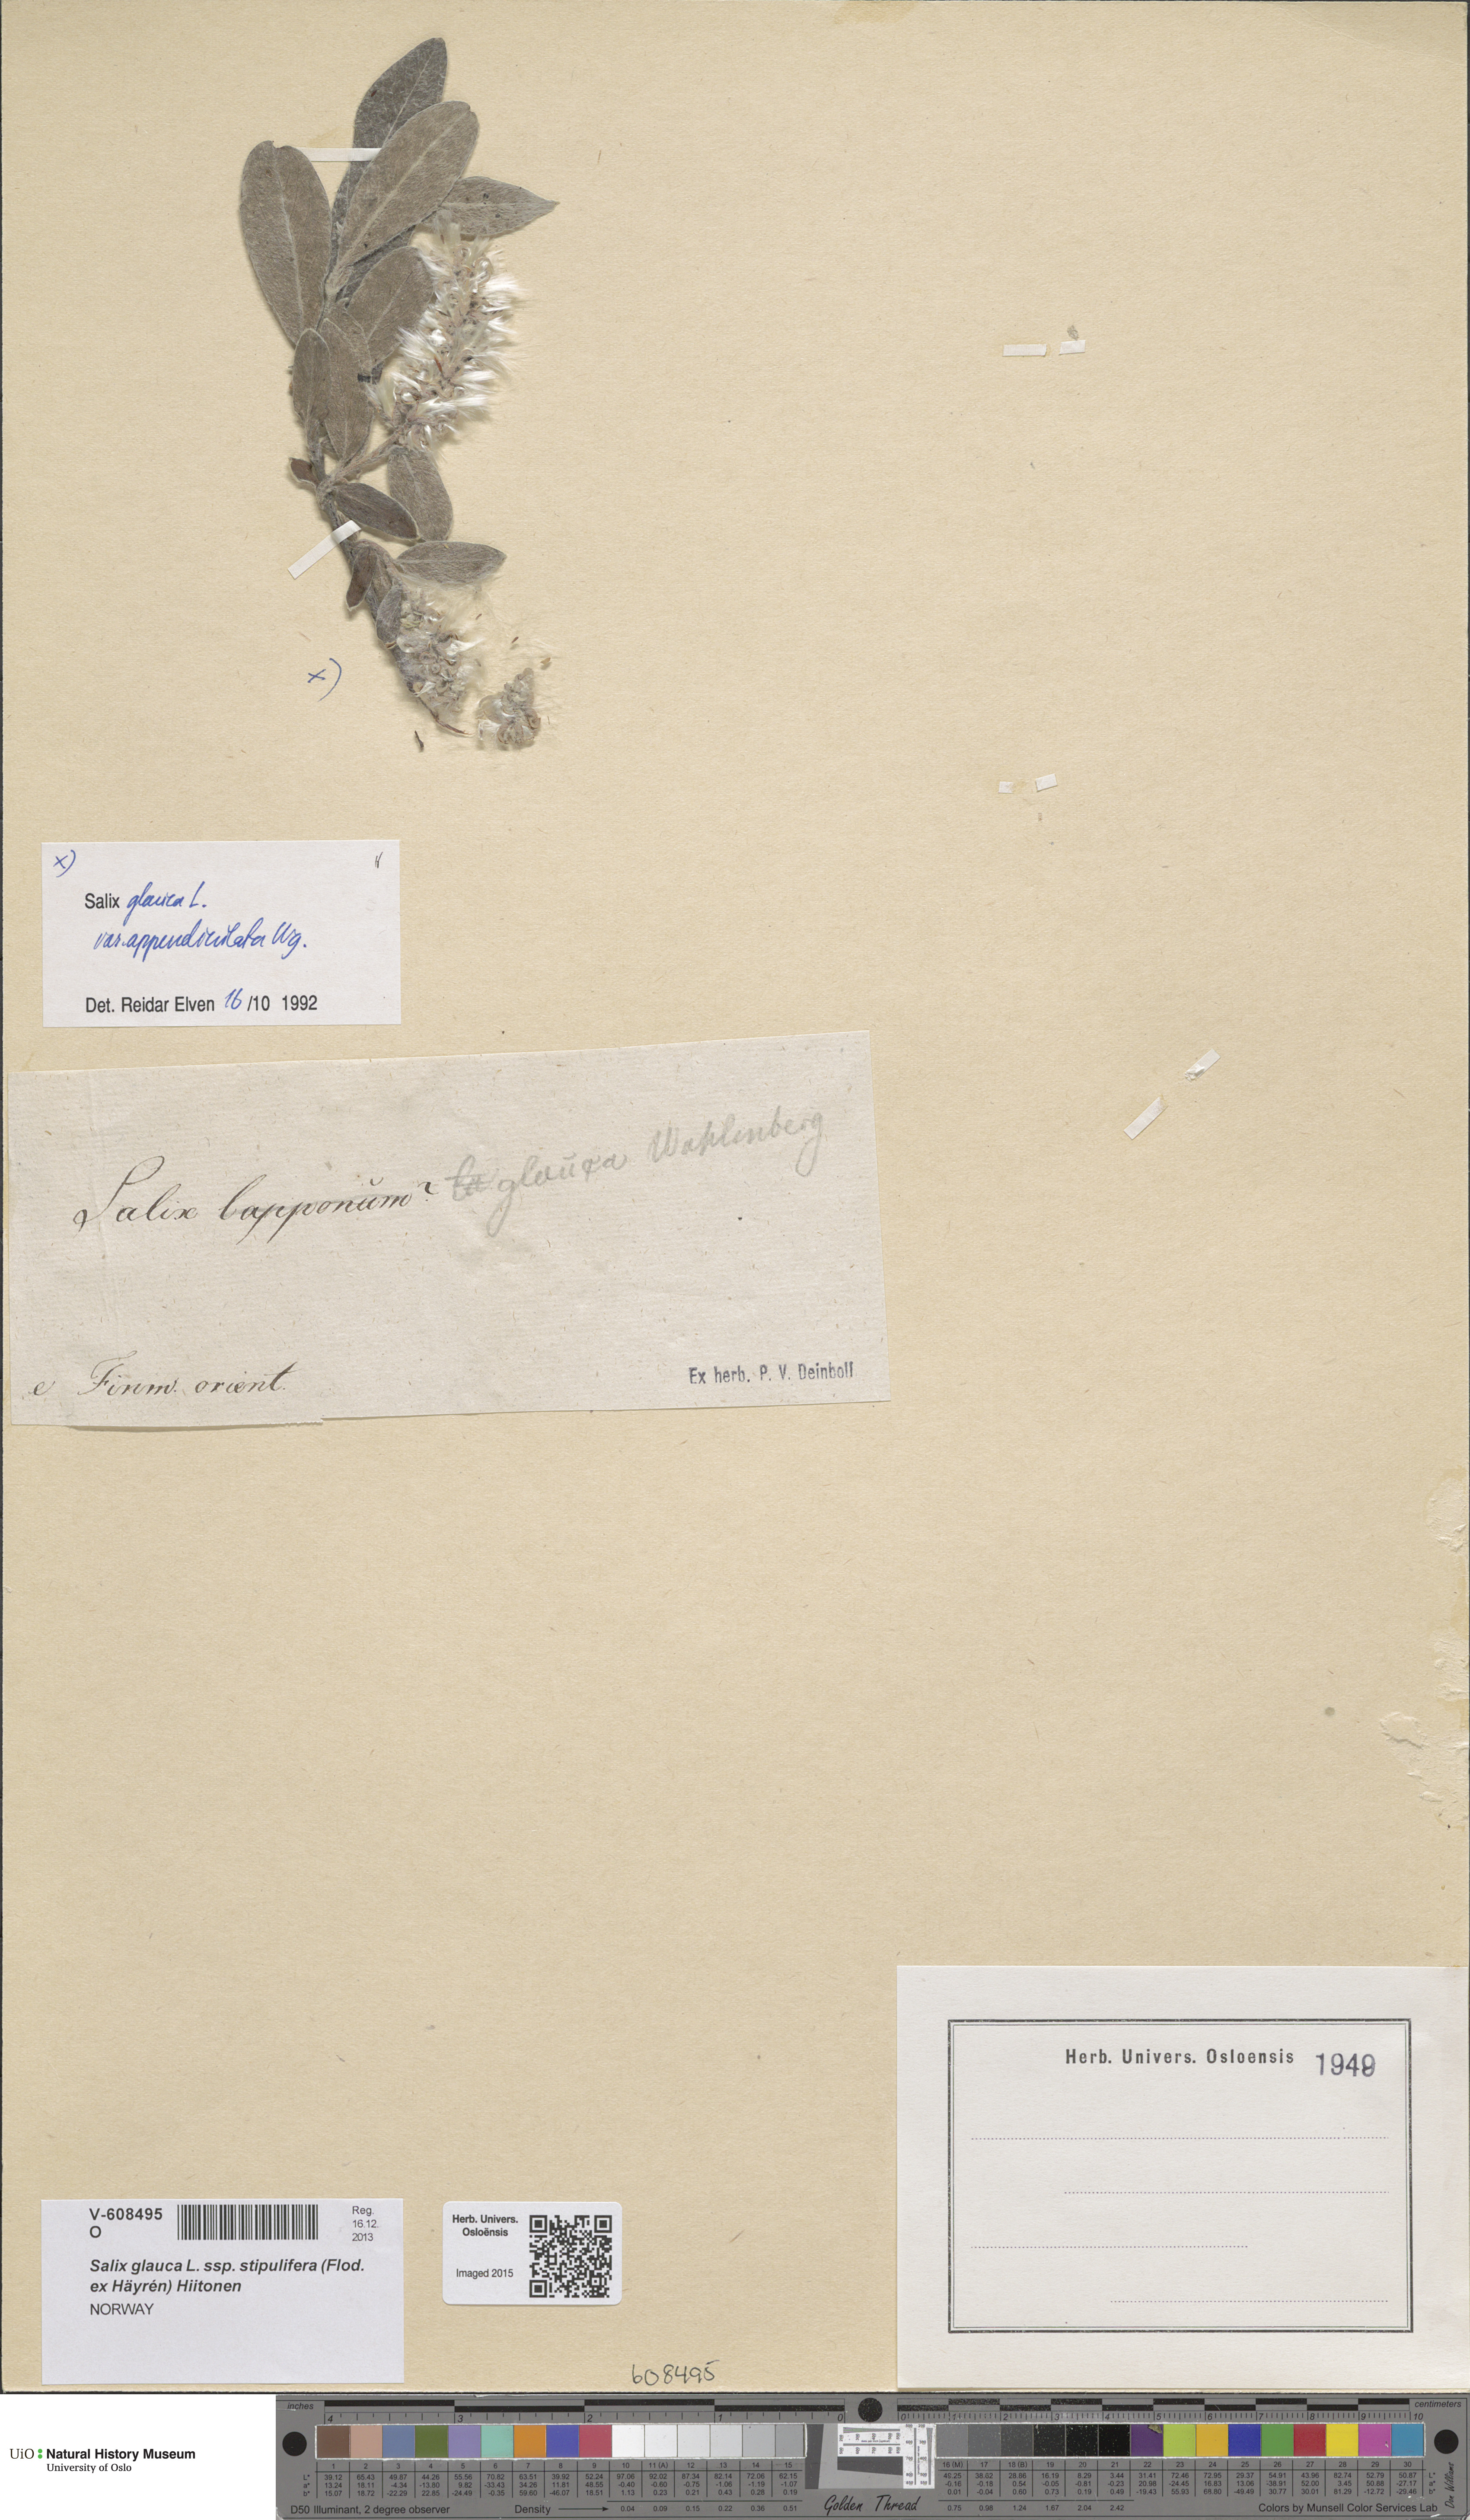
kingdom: Plantae
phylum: Tracheophyta
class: Magnoliopsida
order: Malpighiales
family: Salicaceae
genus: Salix
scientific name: Salix glauca
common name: Glaucous willow
